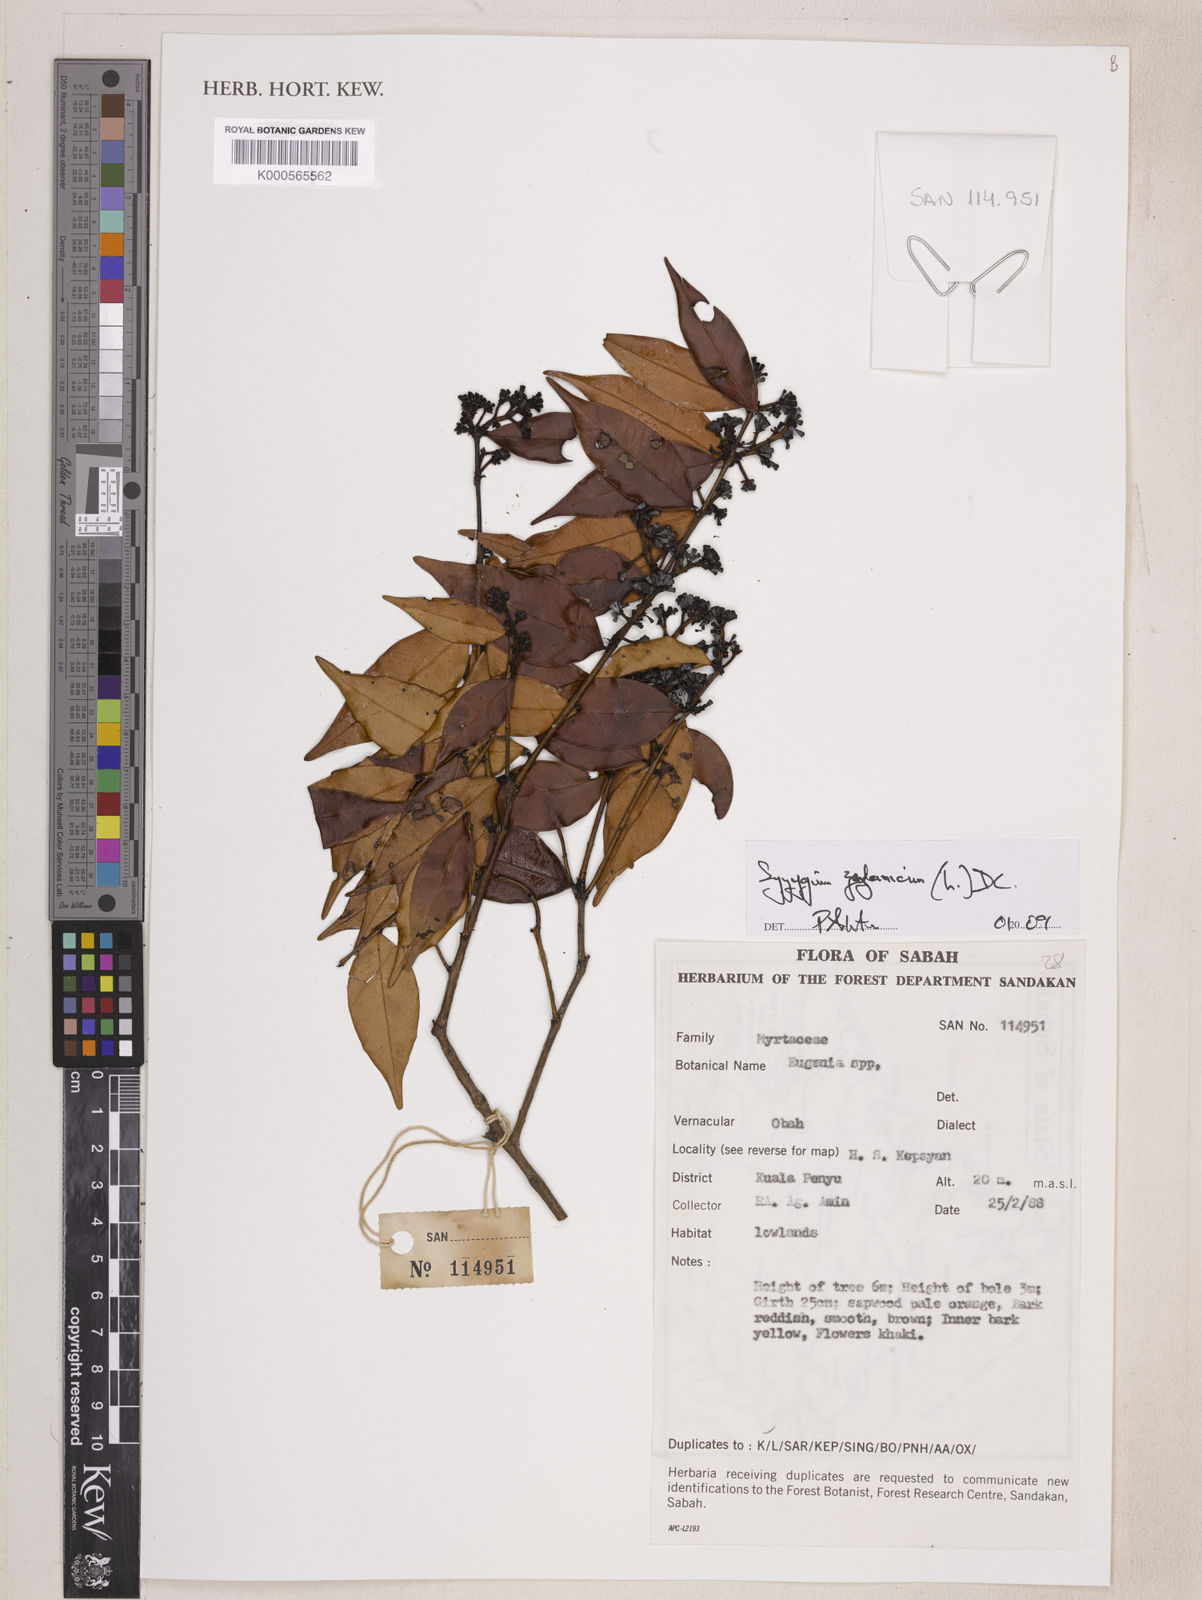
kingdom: Plantae
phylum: Tracheophyta
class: Magnoliopsida
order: Myrtales
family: Myrtaceae
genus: Syzygium
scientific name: Syzygium zeylanicum
